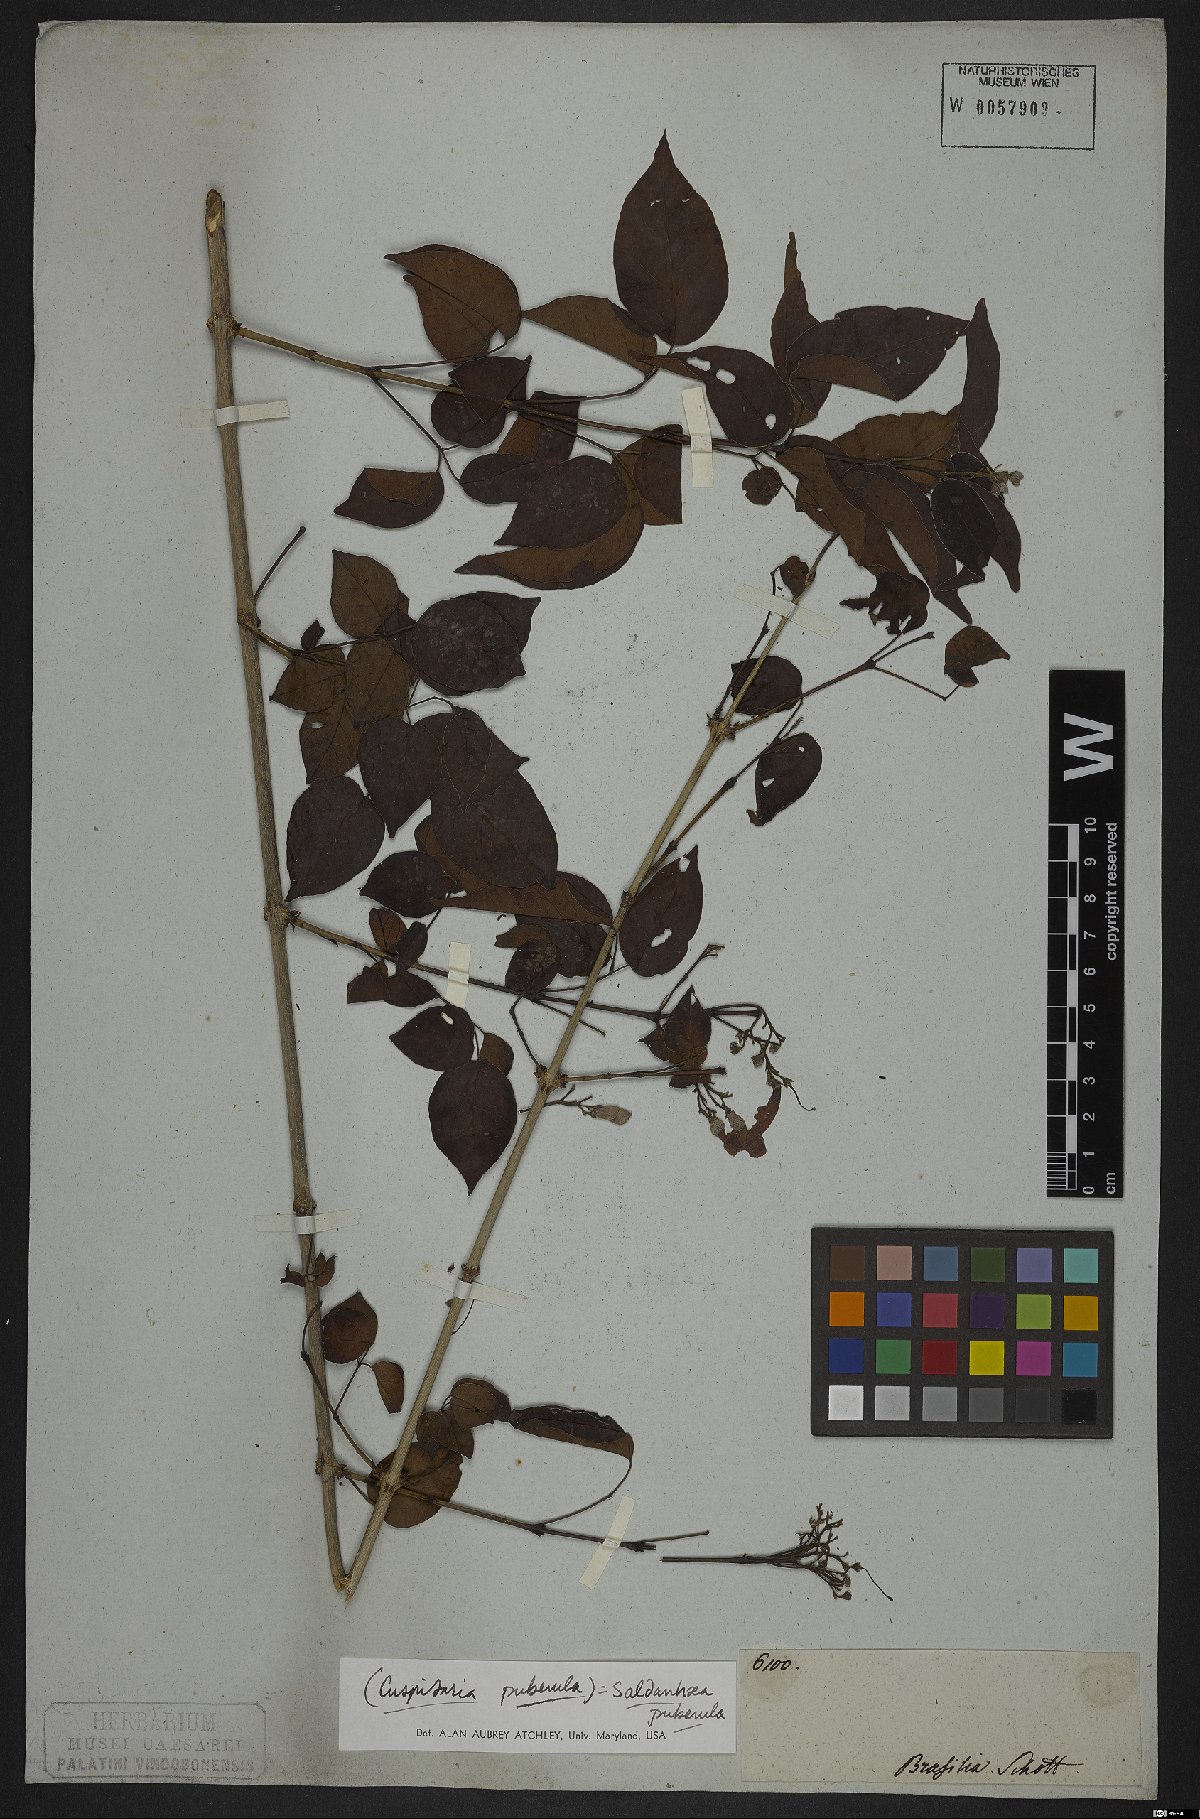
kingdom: Plantae
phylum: Tracheophyta
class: Magnoliopsida
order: Lamiales
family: Bignoniaceae
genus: Cuspidaria
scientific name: Cuspidaria simplicifolia
